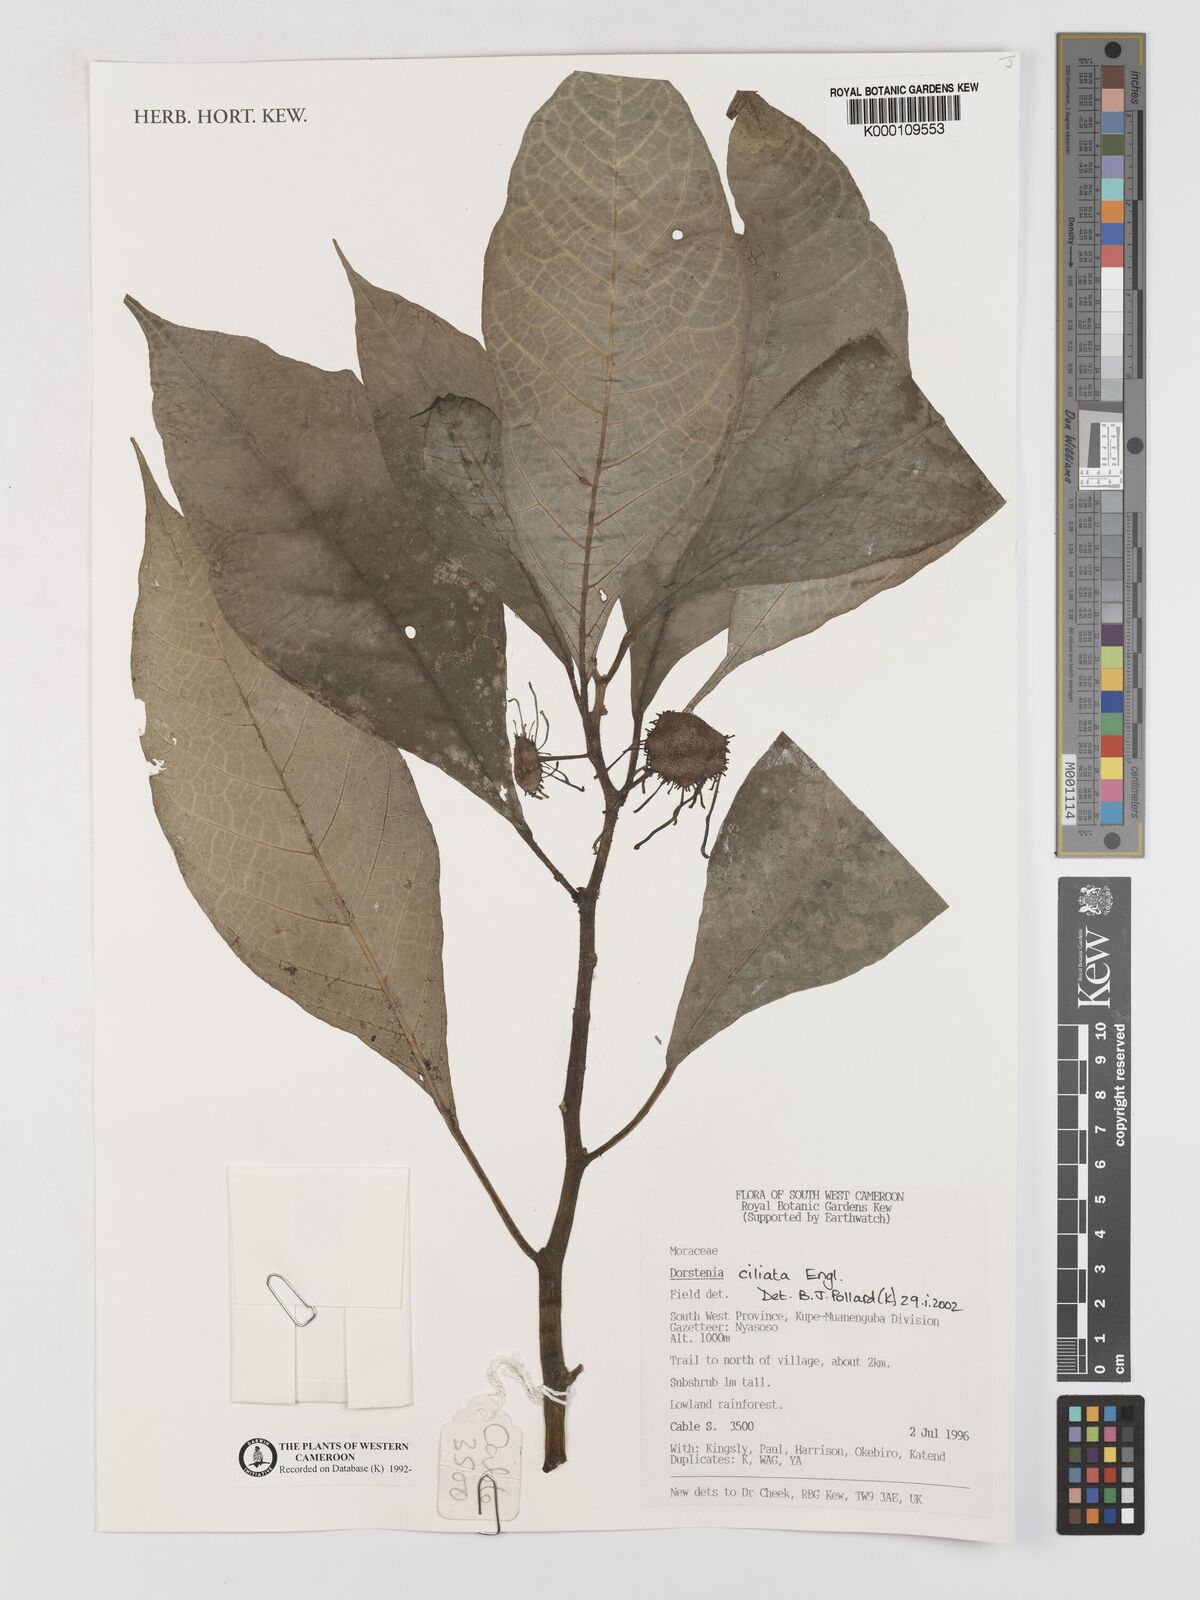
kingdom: Plantae
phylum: Tracheophyta
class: Magnoliopsida
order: Rosales
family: Moraceae
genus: Dorstenia
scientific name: Dorstenia ciliata
